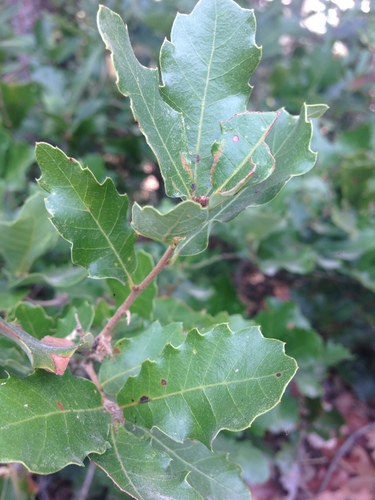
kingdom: Plantae
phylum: Tracheophyta
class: Magnoliopsida
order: Fagales
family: Fagaceae
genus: Quercus
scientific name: Quercus lusitanica
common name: Scrub gall oak
